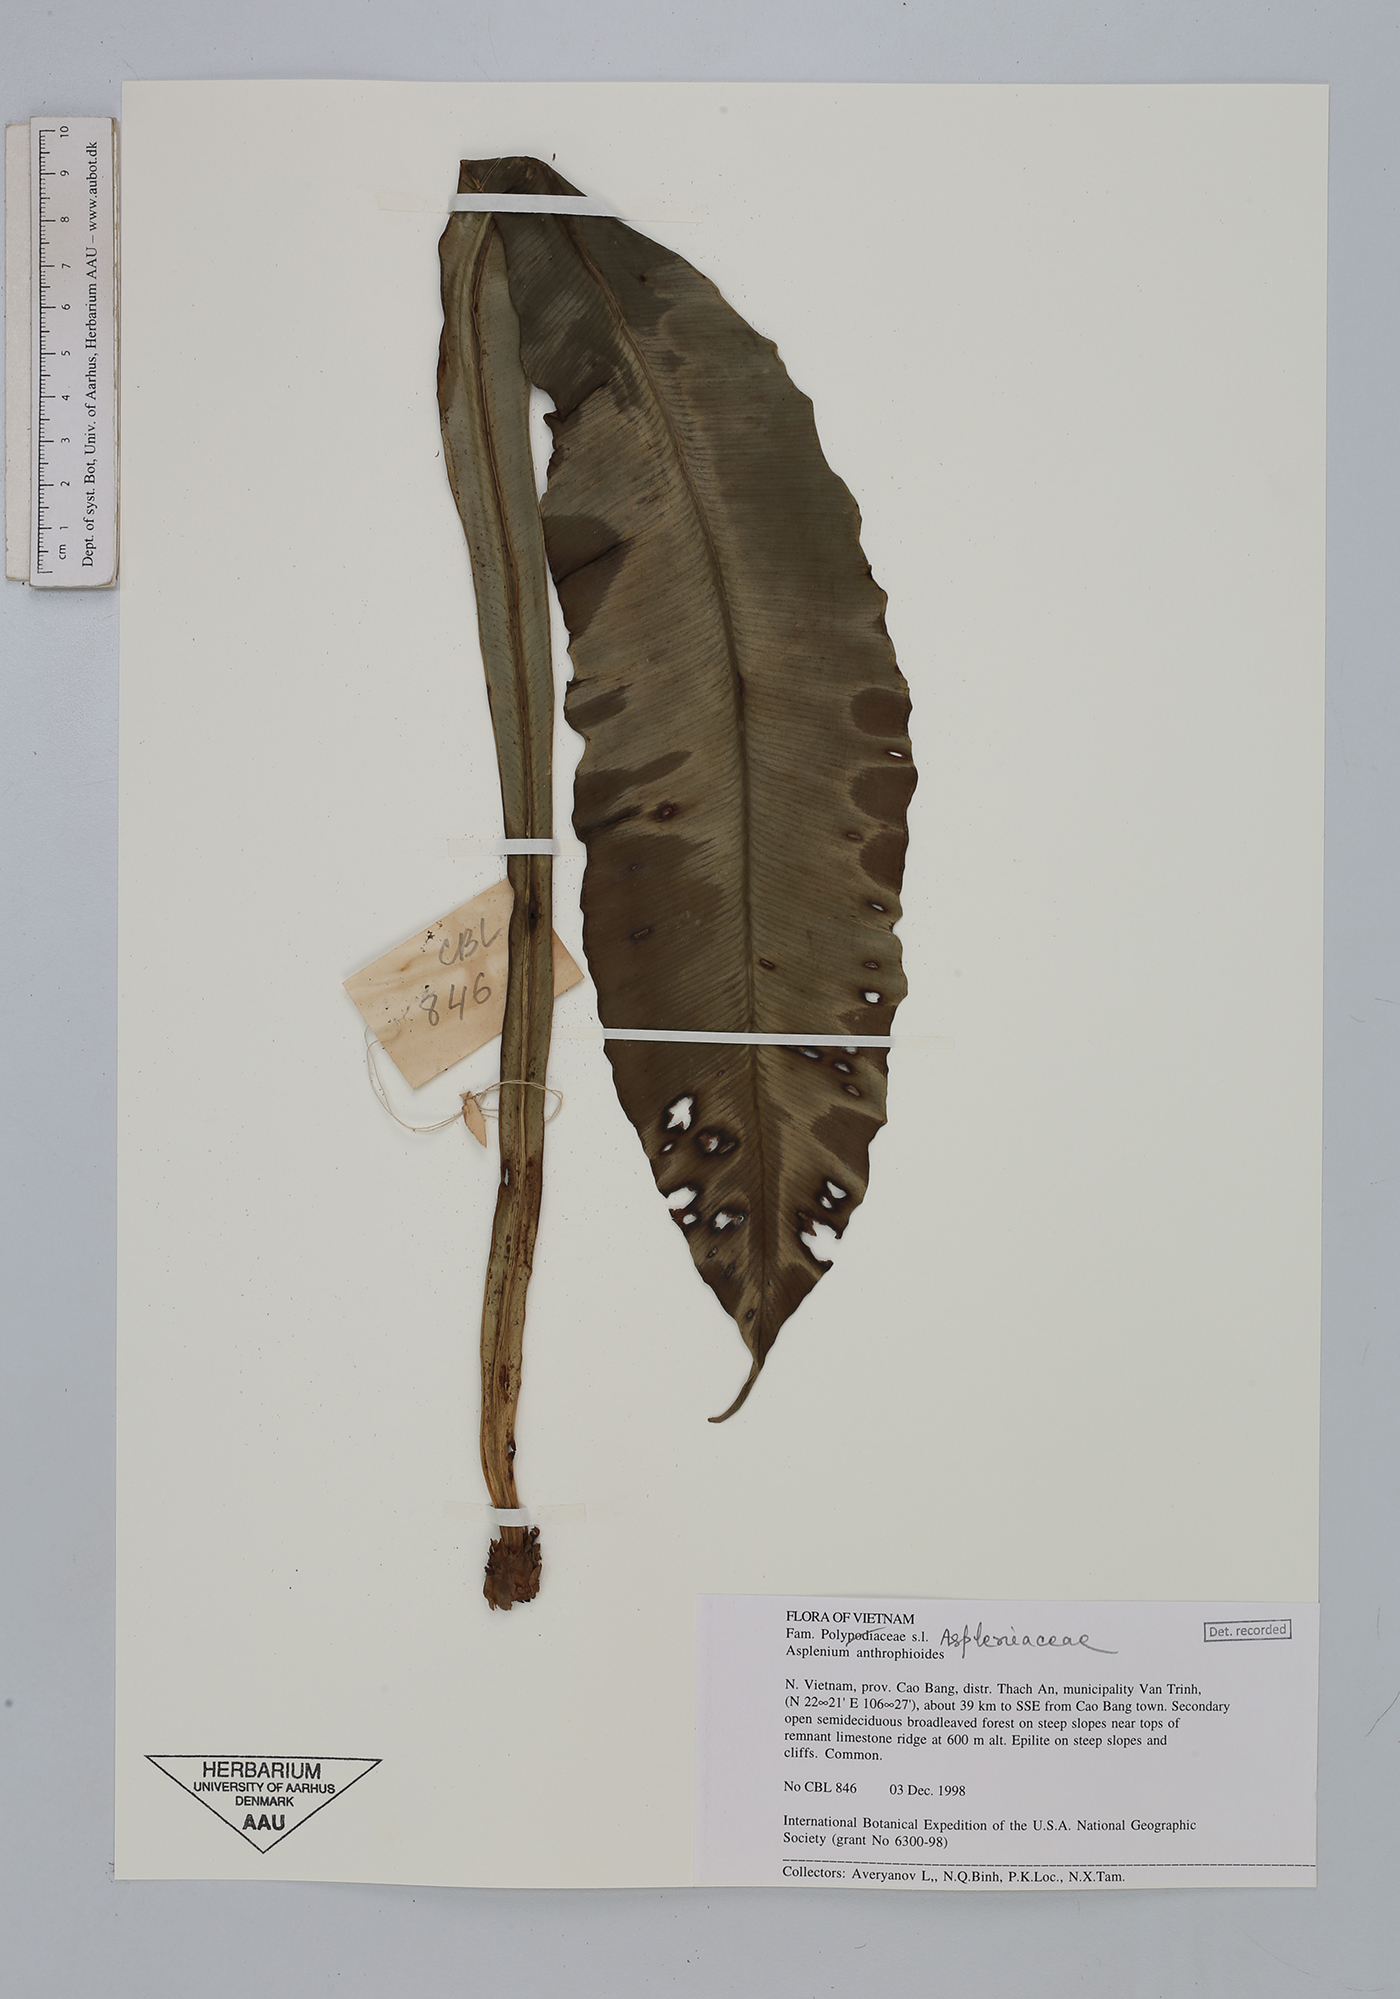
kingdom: Plantae
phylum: Tracheophyta
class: Polypodiopsida
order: Polypodiales
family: Aspleniaceae
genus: Asplenium
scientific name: Asplenium antrophyoides
